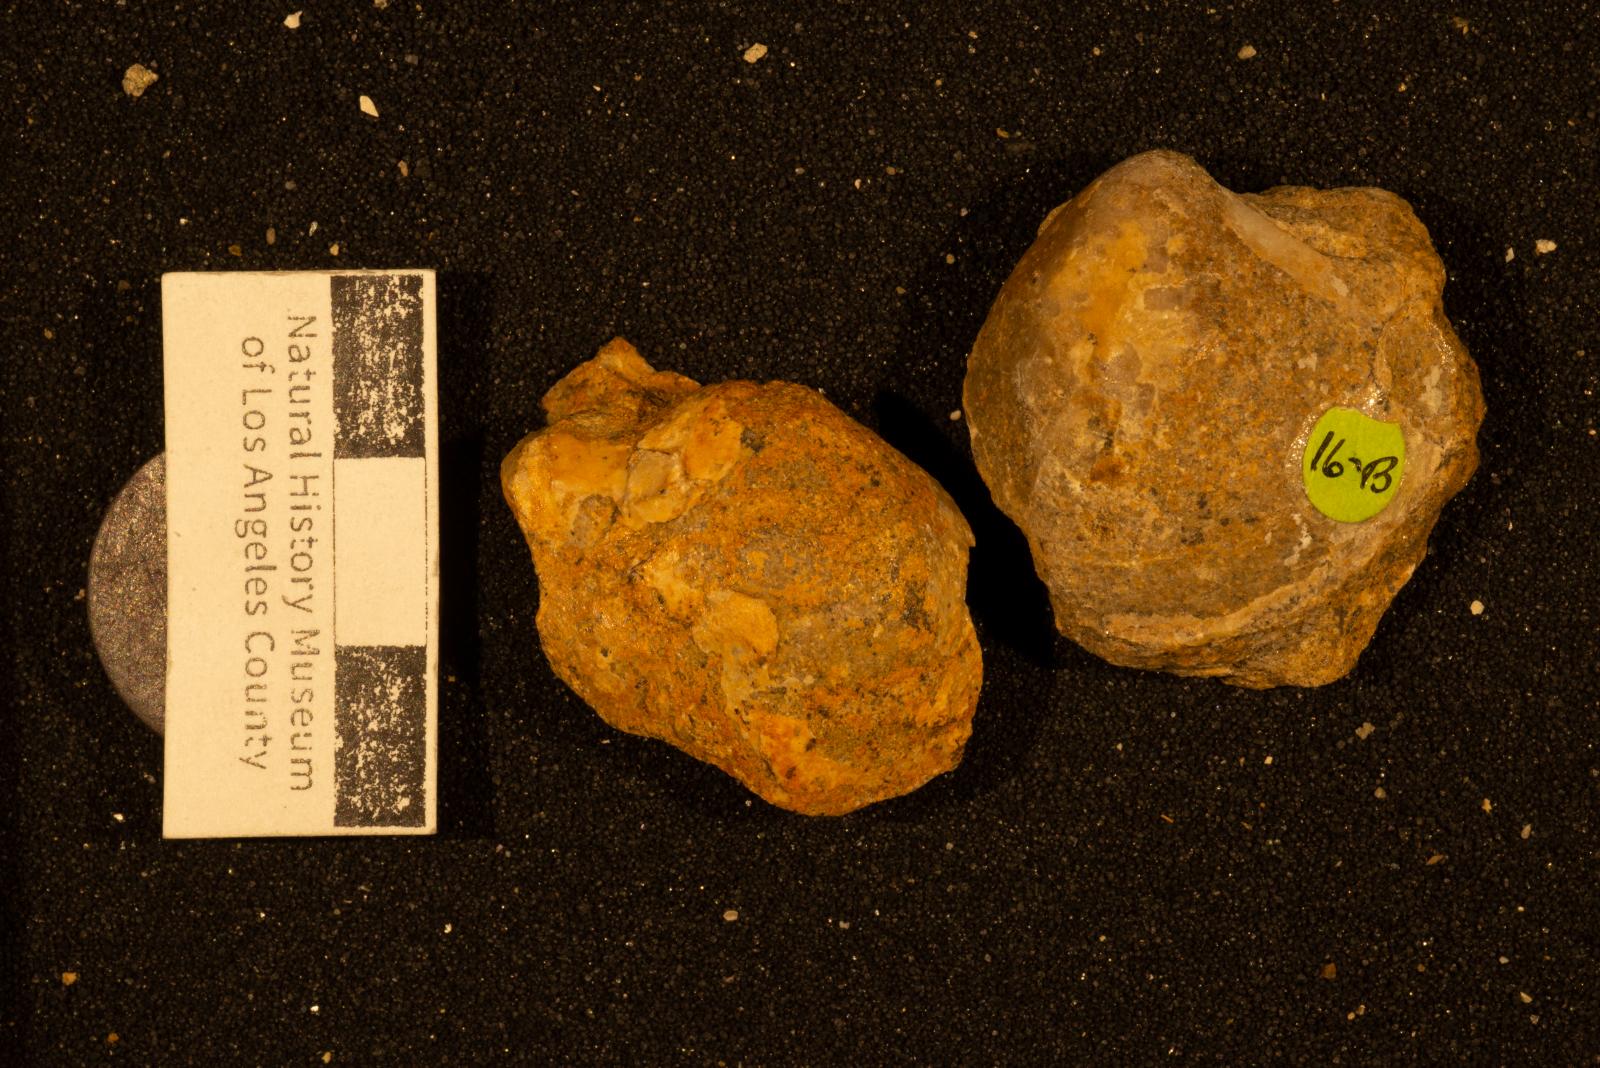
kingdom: Animalia
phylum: Mollusca
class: Bivalvia
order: Cardiida
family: Tancrediidae
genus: Meekia
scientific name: Meekia sella
